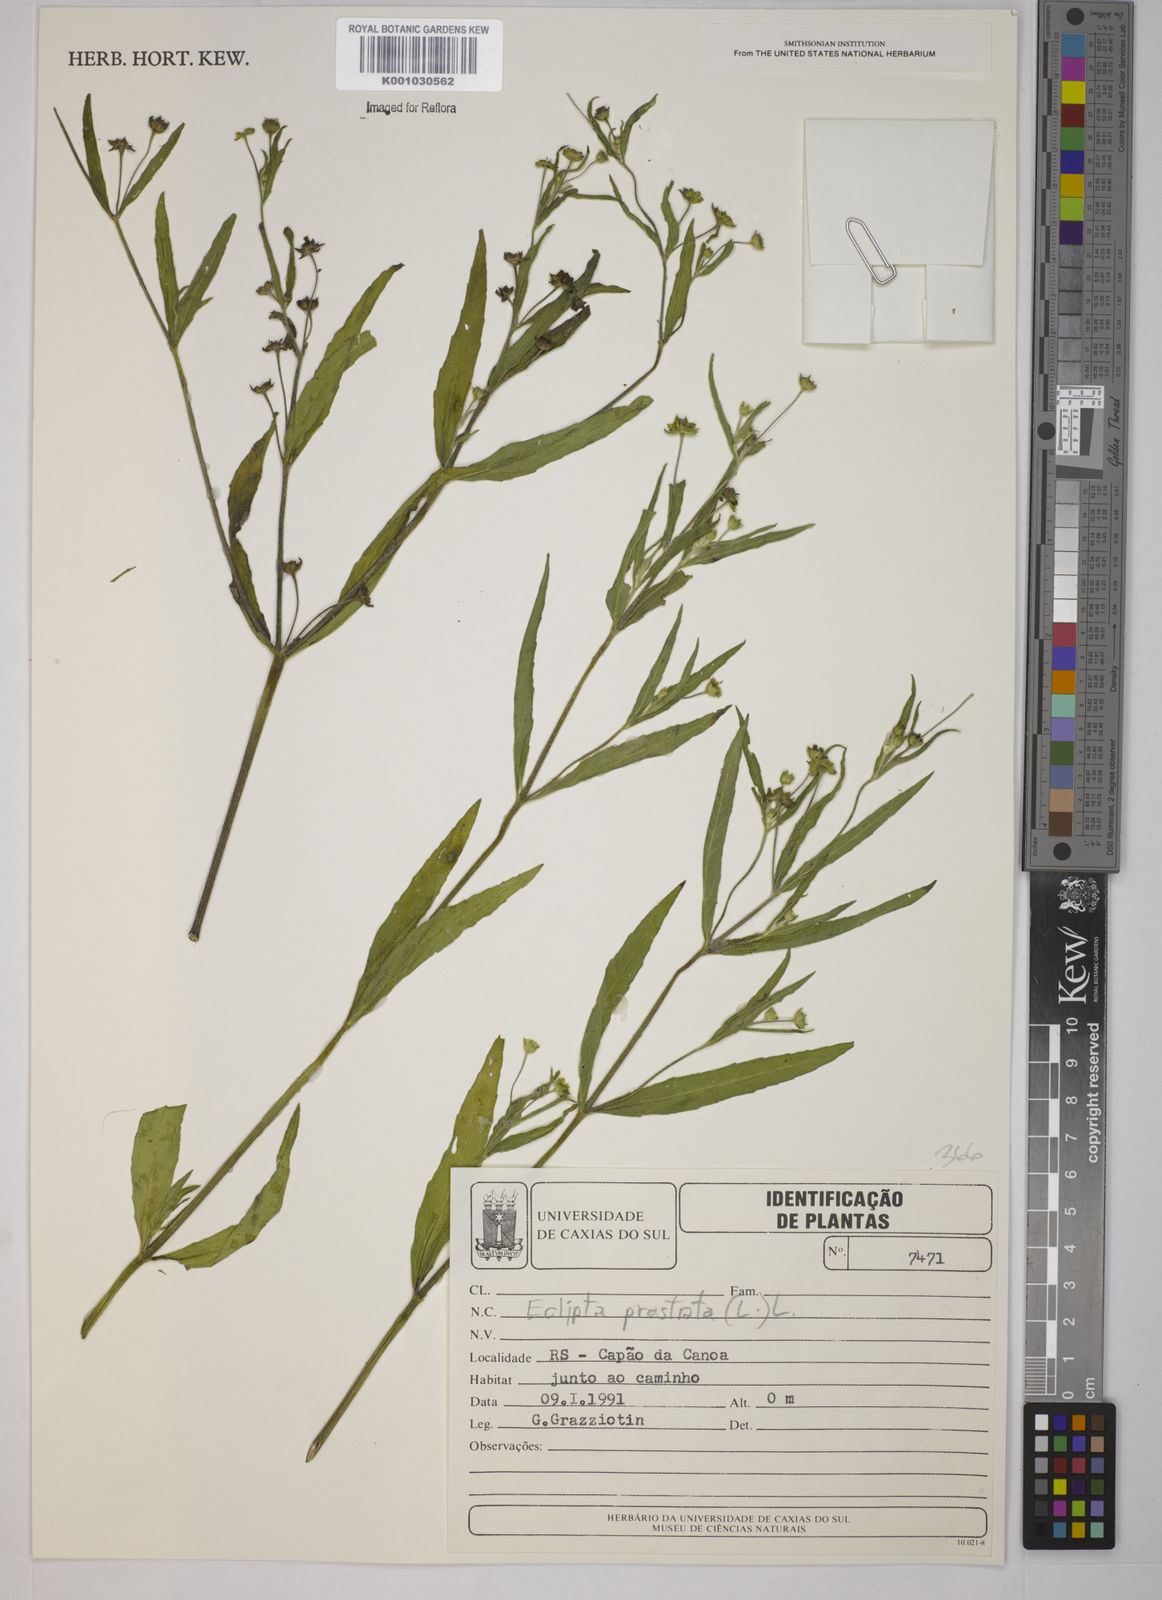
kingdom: Plantae
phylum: Tracheophyta
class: Magnoliopsida
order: Asterales
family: Asteraceae
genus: Eclipta
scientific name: Eclipta prostrata
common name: False daisy
